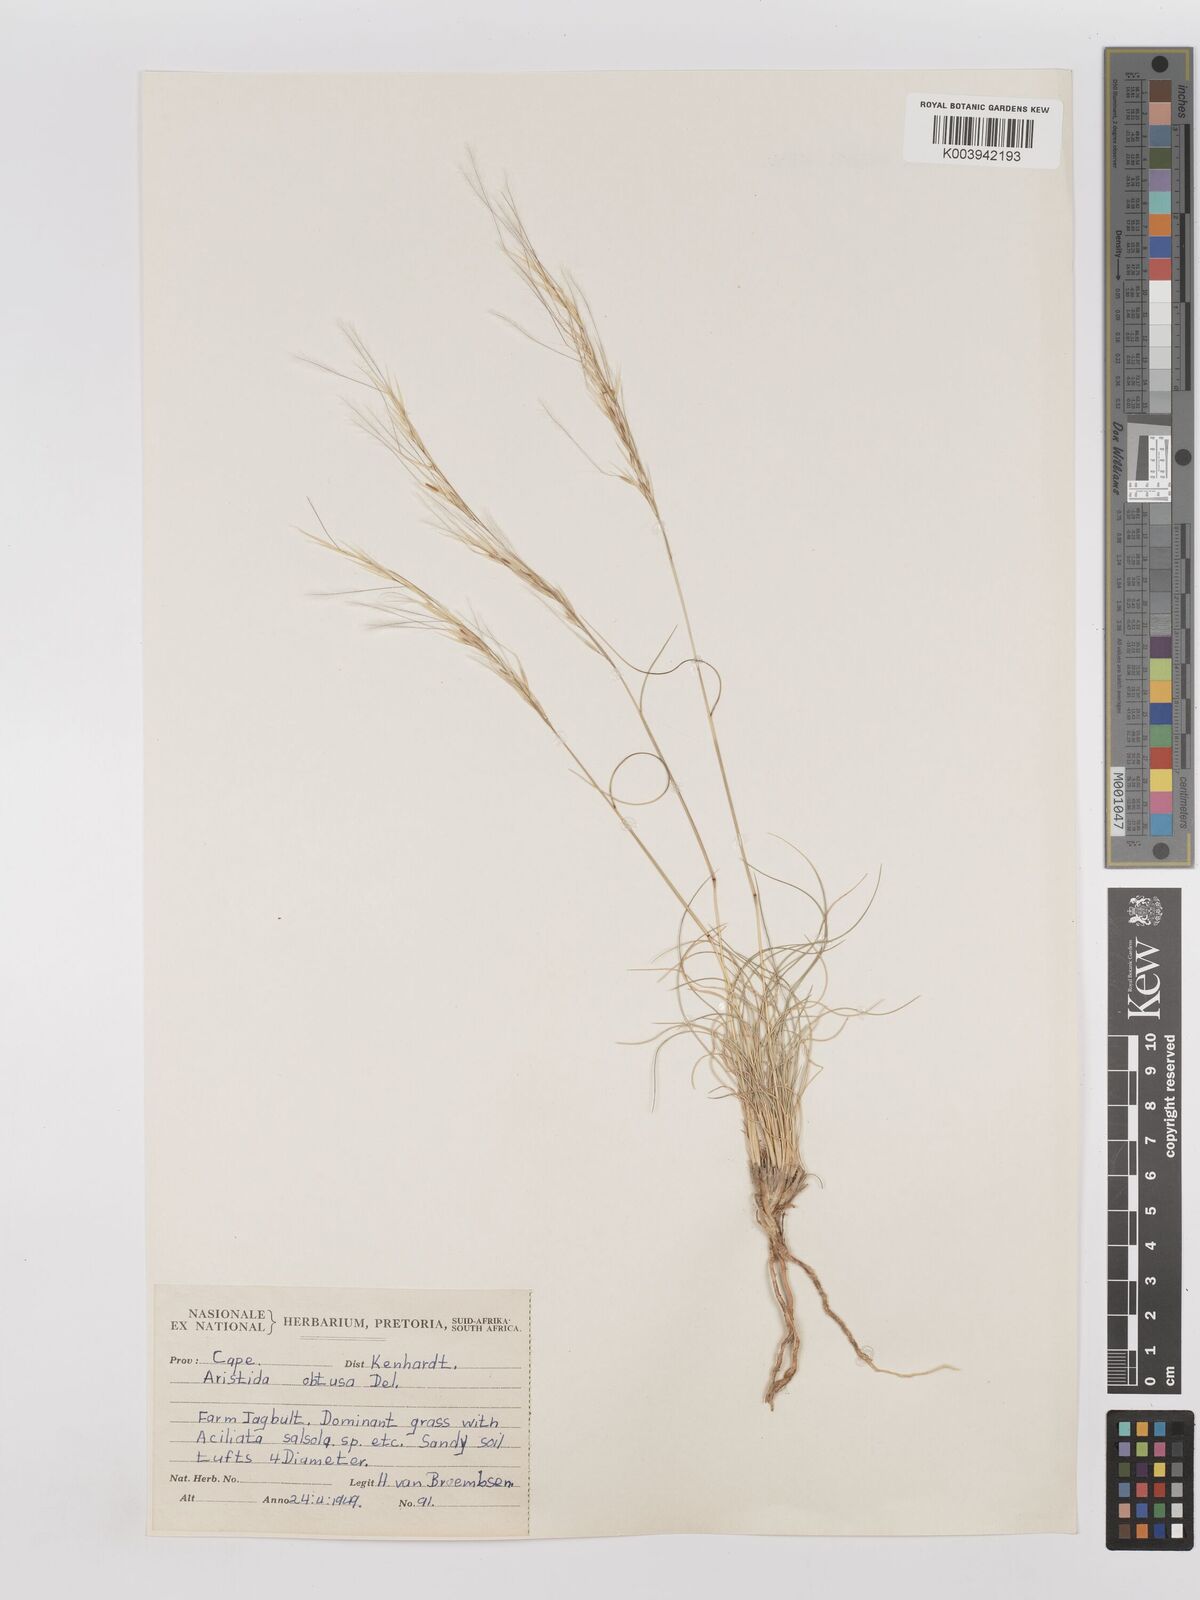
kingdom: Plantae
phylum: Tracheophyta
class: Liliopsida
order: Poales
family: Poaceae
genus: Stipagrostis
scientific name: Stipagrostis obtusa
